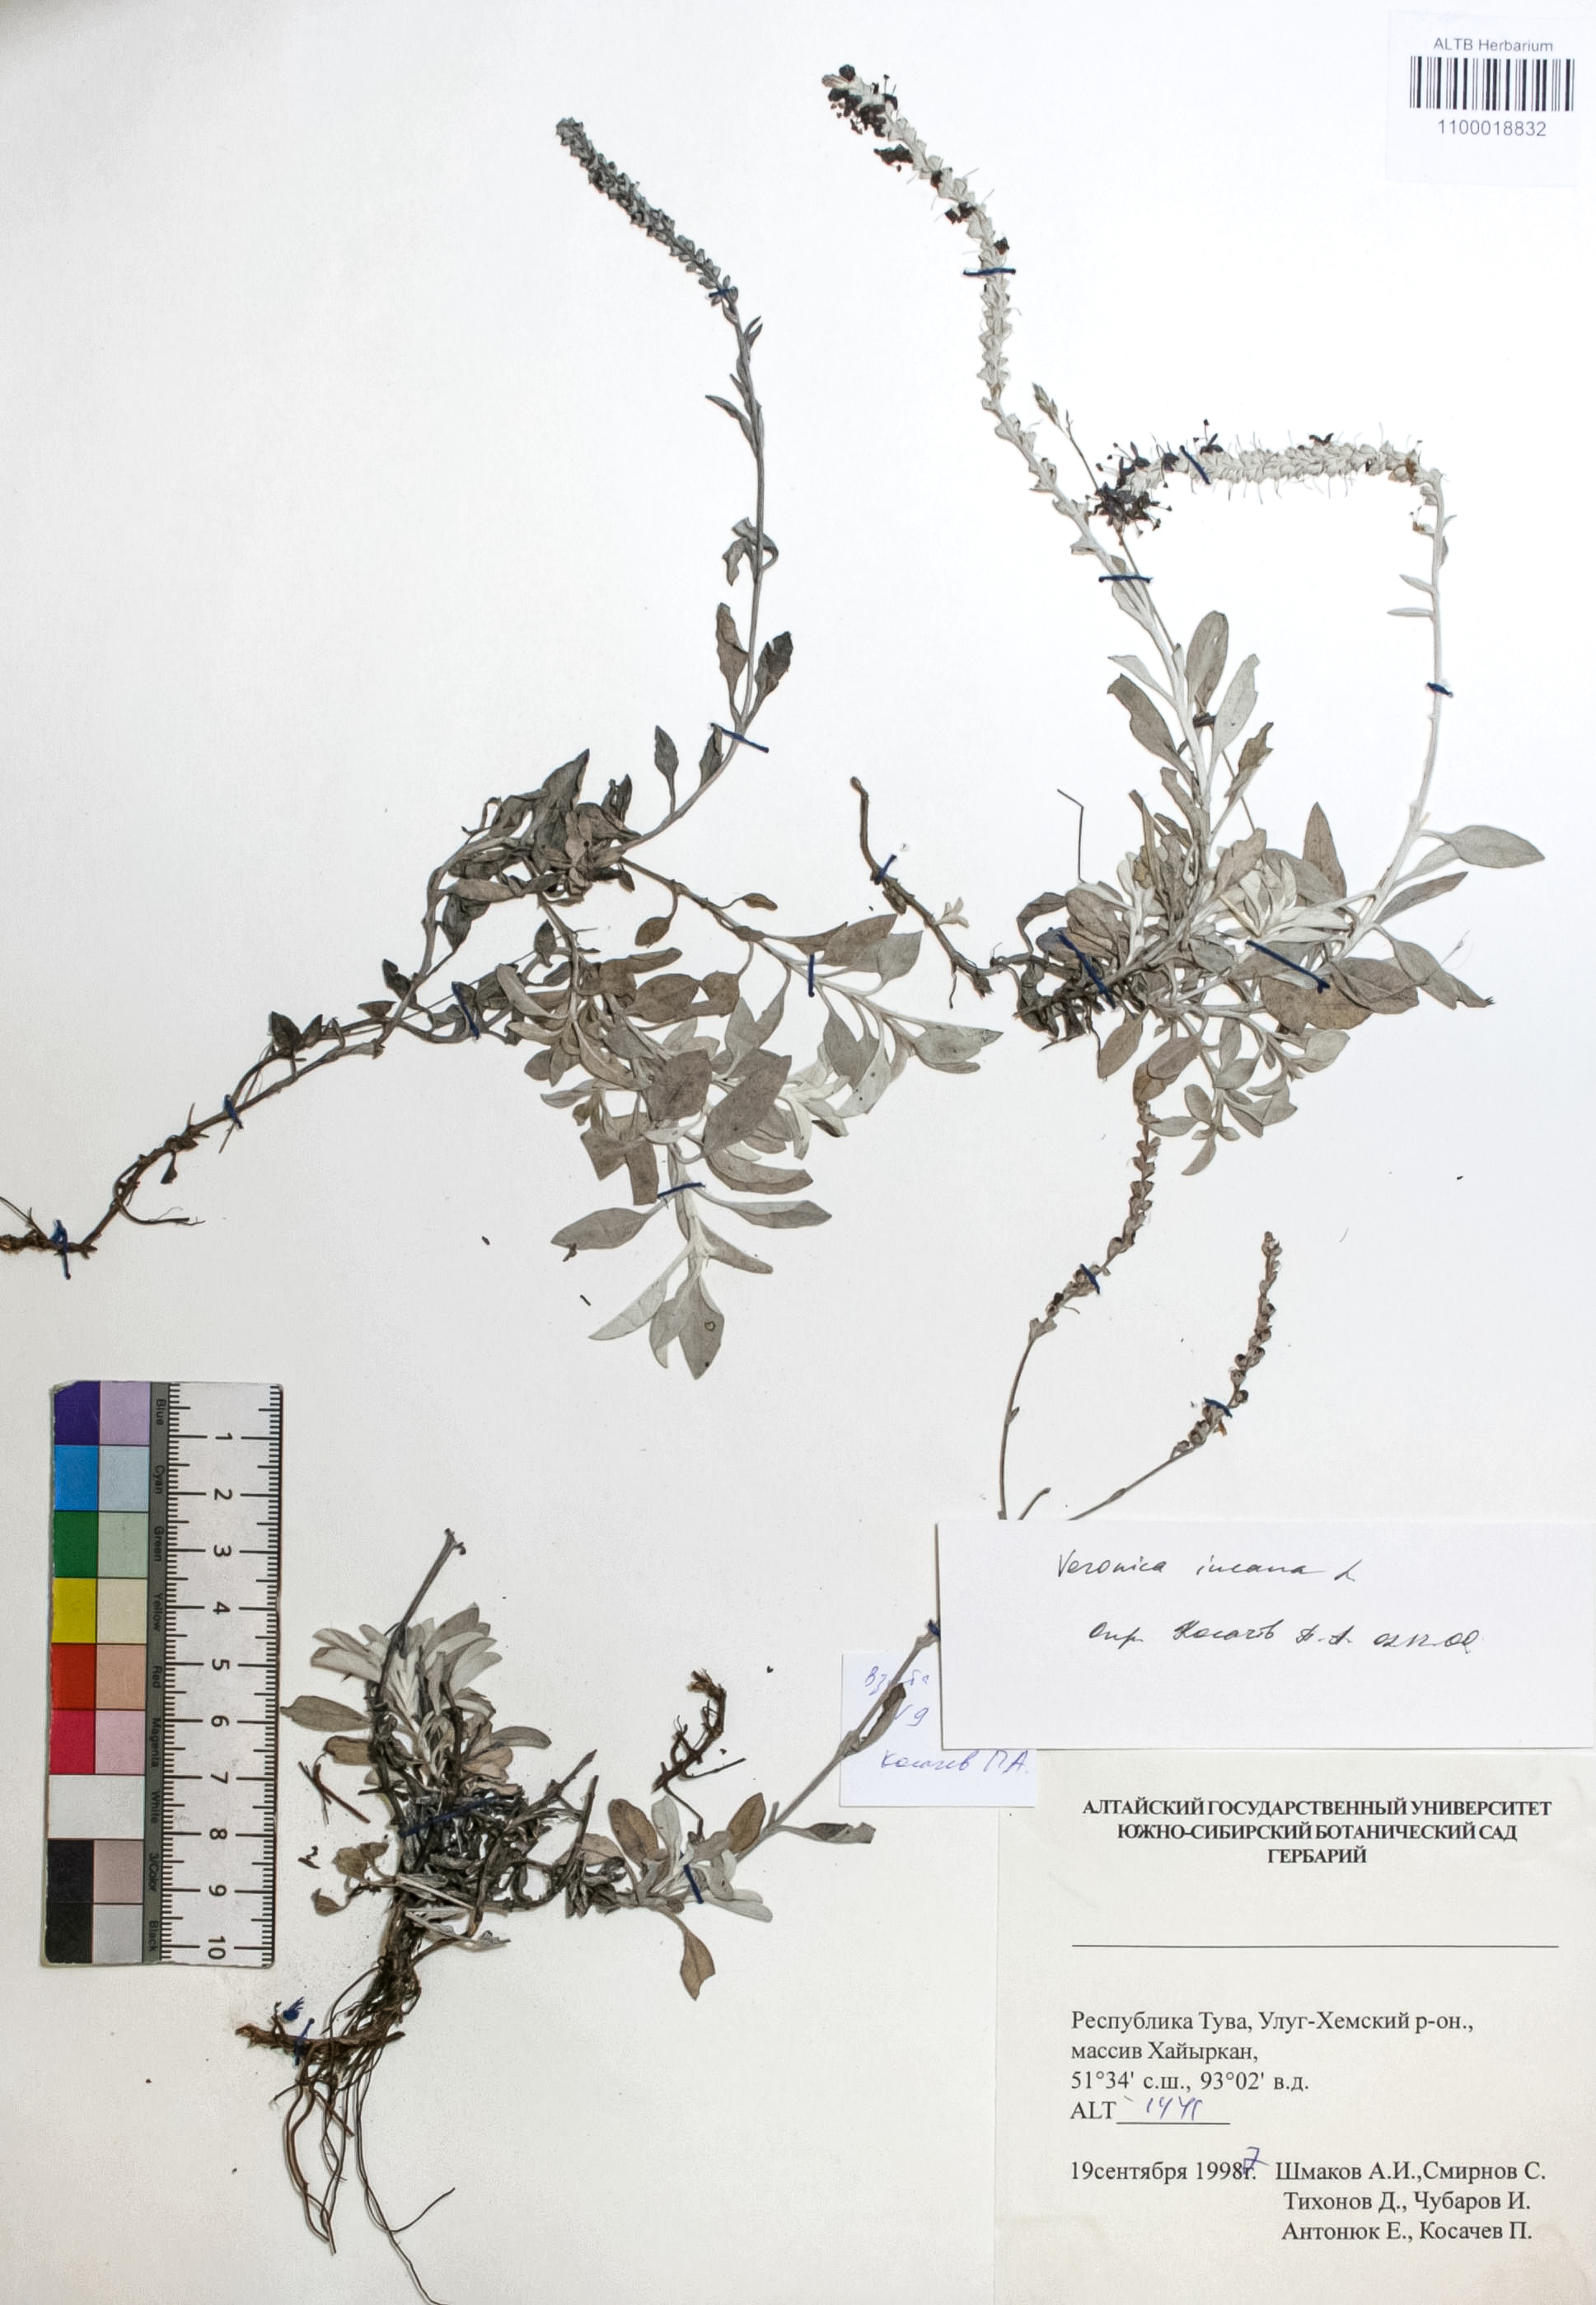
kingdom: Plantae
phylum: Tracheophyta
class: Magnoliopsida
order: Lamiales
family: Plantaginaceae
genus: Veronica
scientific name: Veronica incana
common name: Silver speedwell
